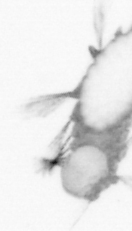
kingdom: Animalia
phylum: Annelida
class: Polychaeta
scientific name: Polychaeta
